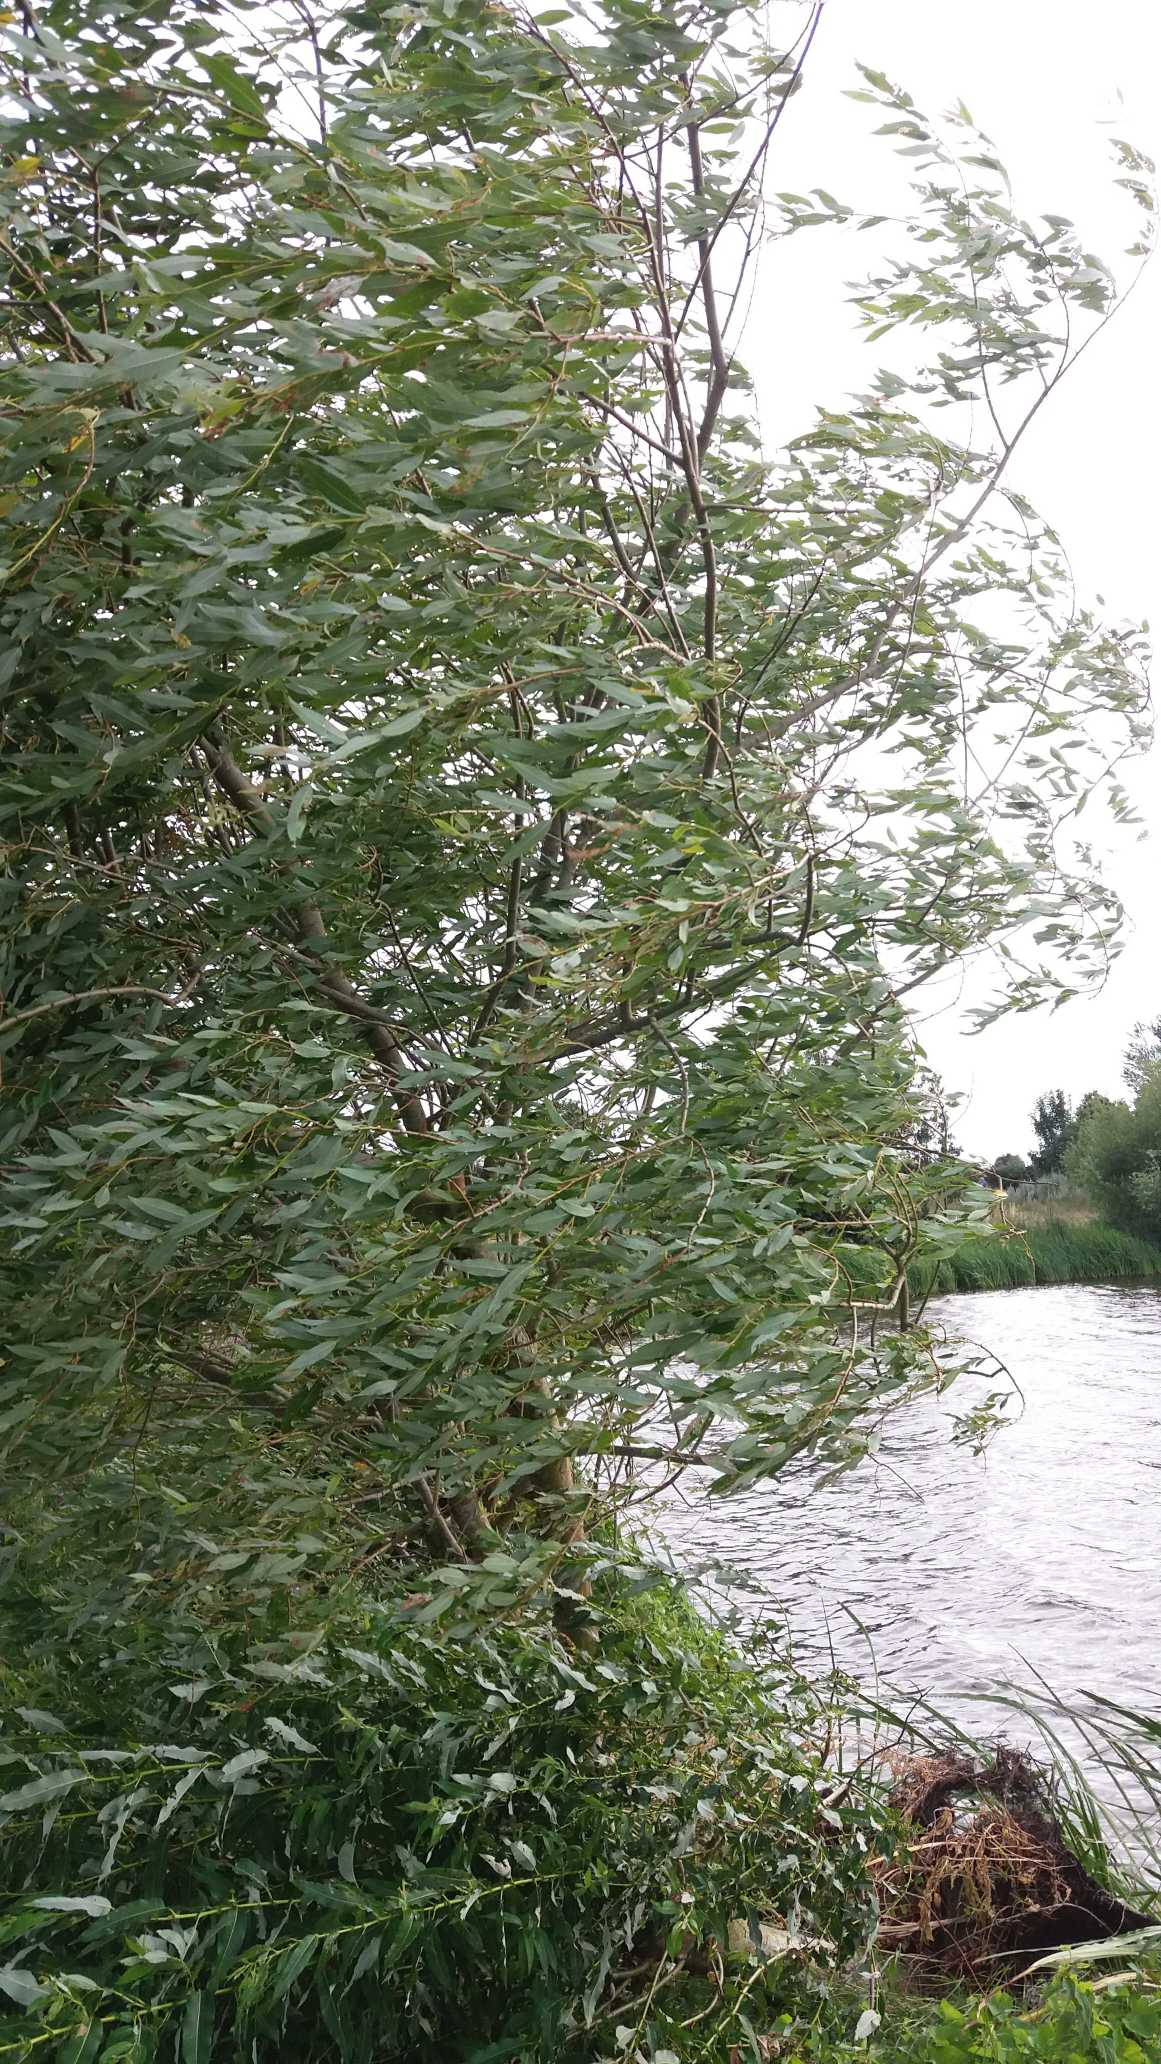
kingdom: Plantae
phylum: Tracheophyta
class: Magnoliopsida
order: Malpighiales
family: Salicaceae
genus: Salix
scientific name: Salix
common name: Pileslægten
